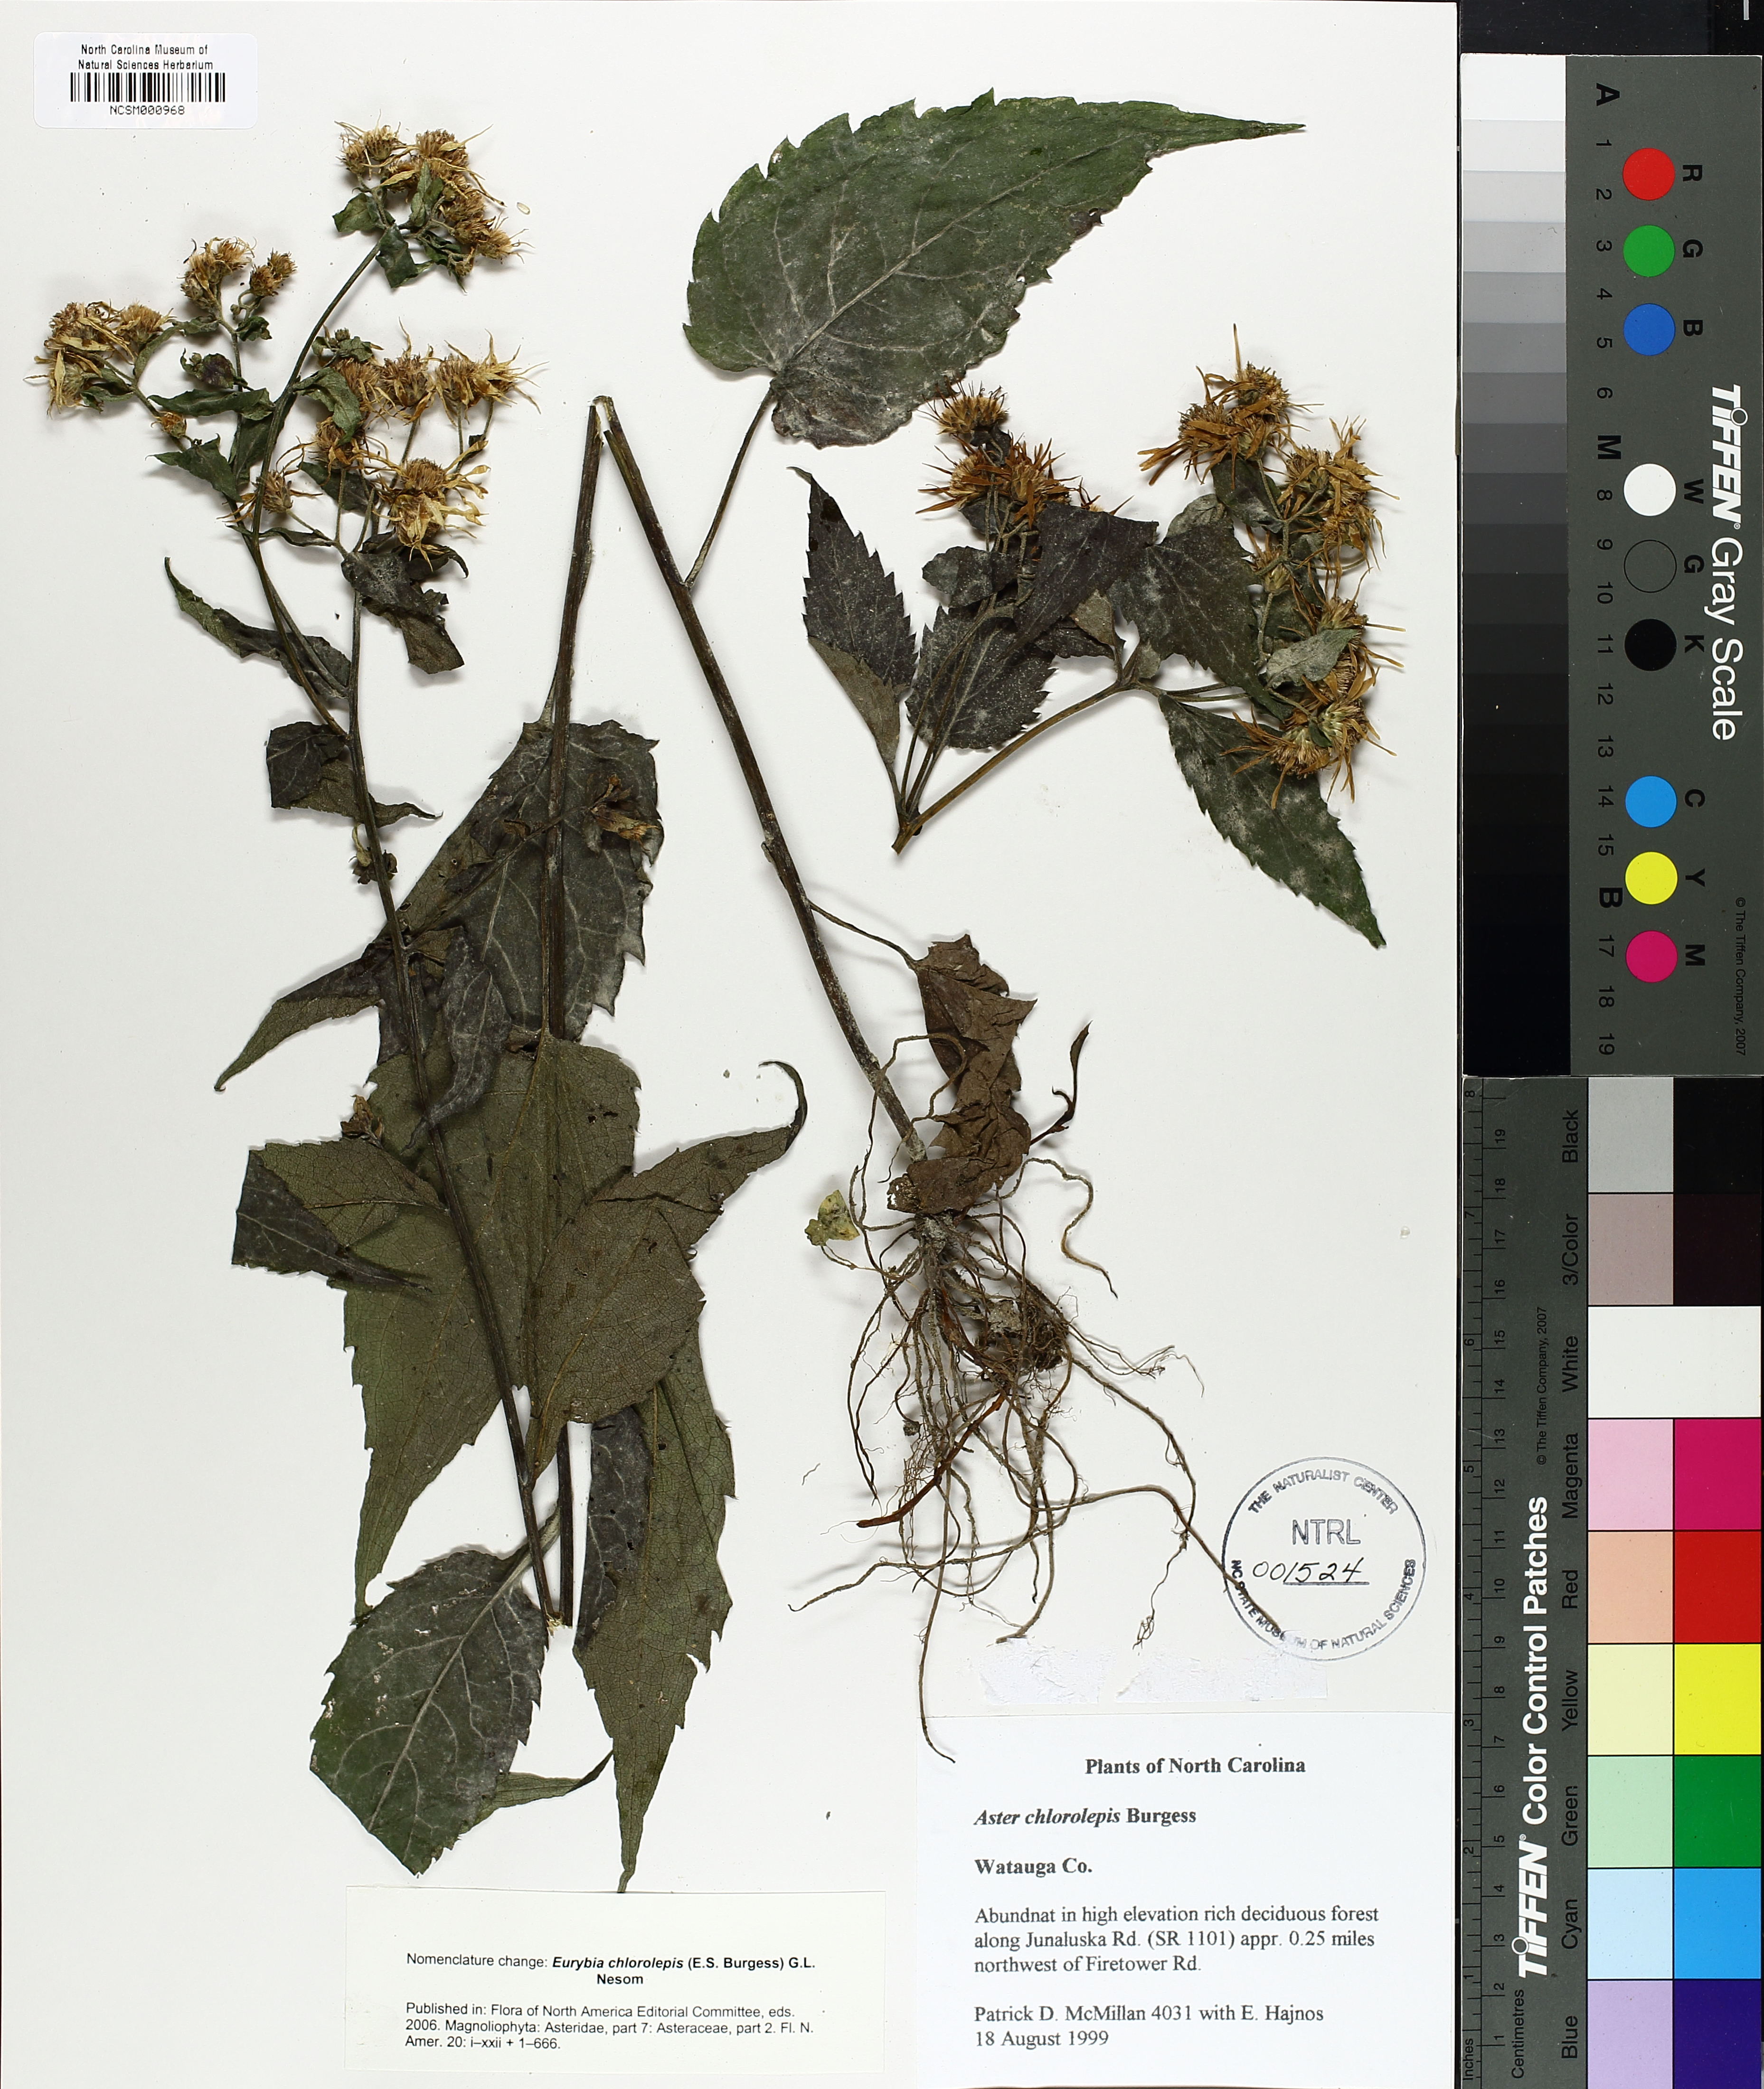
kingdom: Plantae
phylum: Tracheophyta
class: Magnoliopsida
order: Asterales
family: Asteraceae
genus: Eurybia
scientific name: Eurybia chlorolepis
